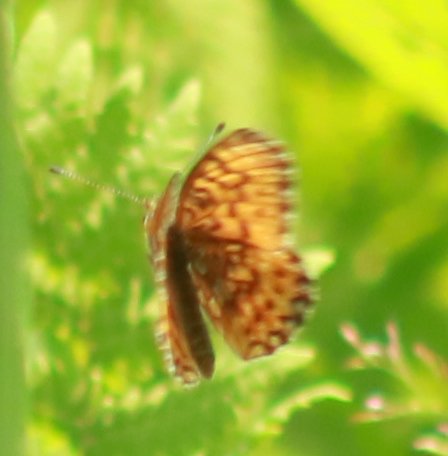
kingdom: Animalia
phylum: Arthropoda
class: Insecta
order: Lepidoptera
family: Nymphalidae
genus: Boloria
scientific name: Boloria selene
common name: Silver-bordered Fritillary
